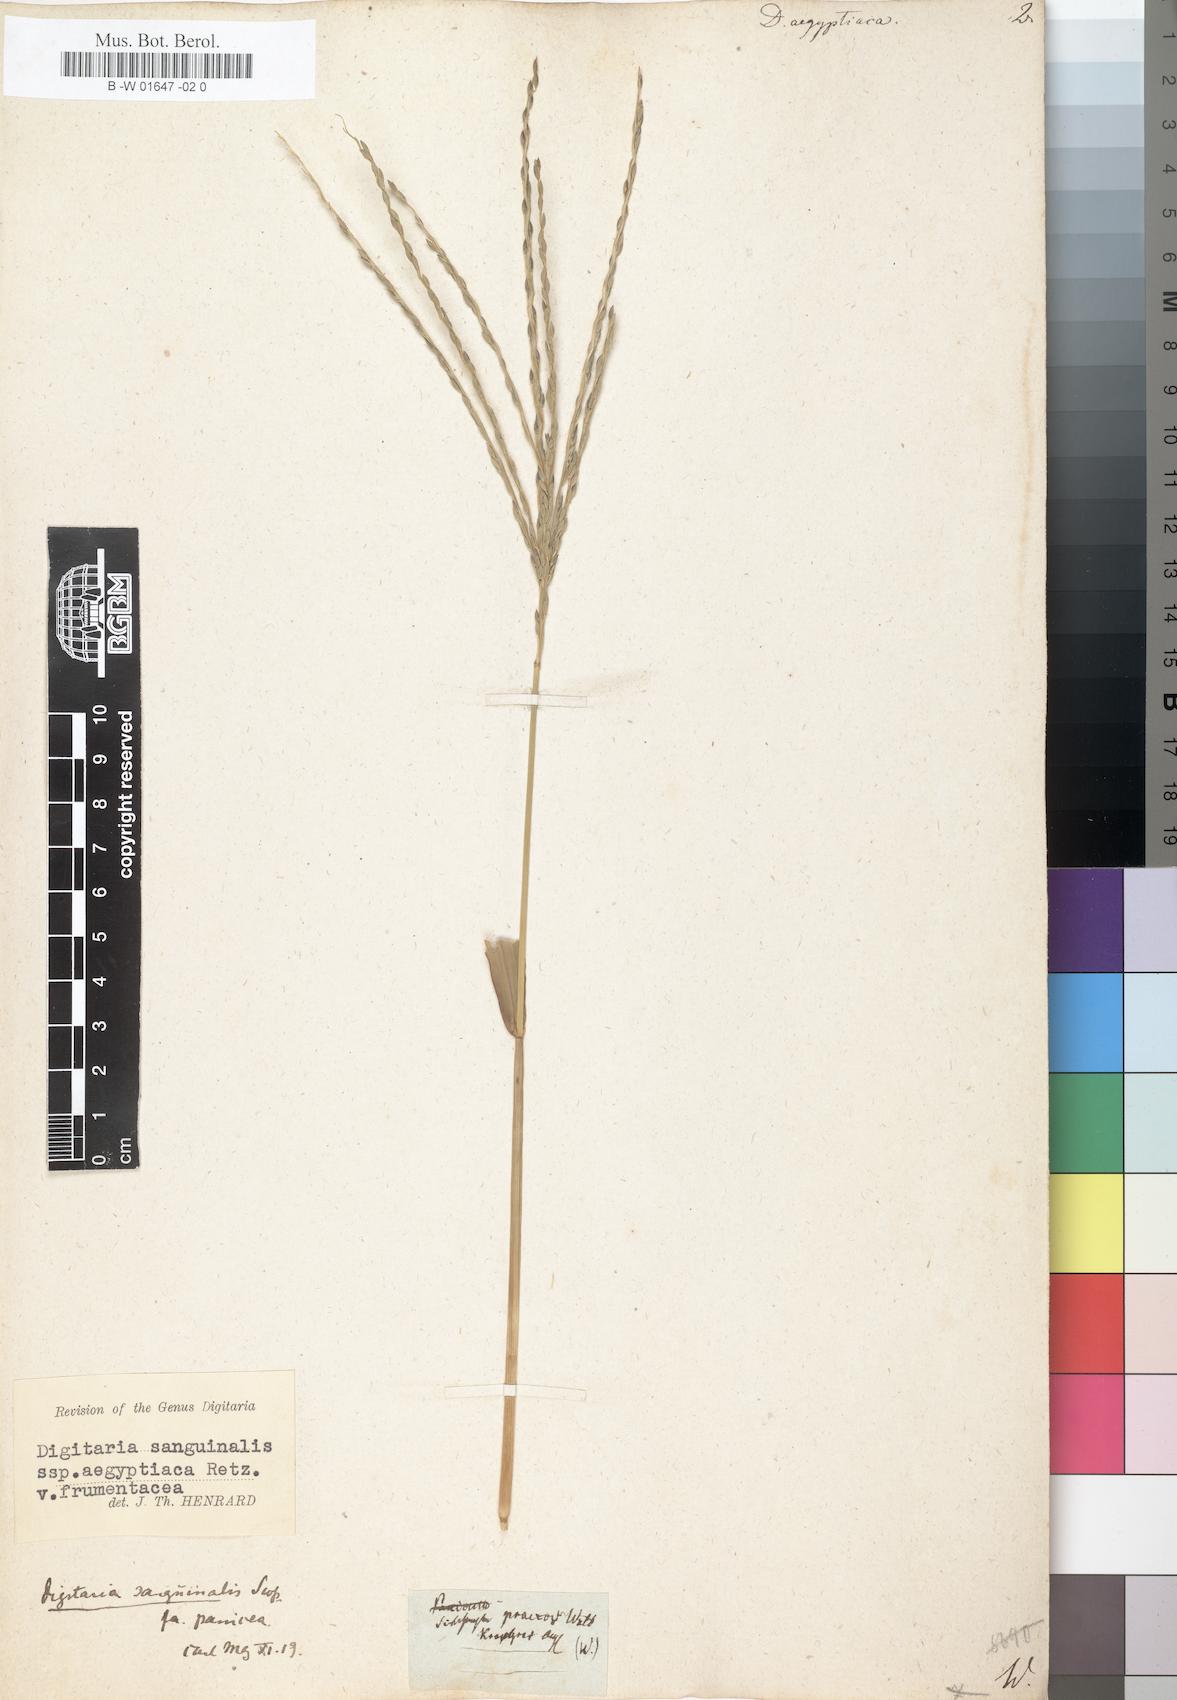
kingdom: Plantae
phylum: Tracheophyta
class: Liliopsida
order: Poales
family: Poaceae
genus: Digitaria
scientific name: Digitaria sanguinalis
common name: Hairy crabgrass
